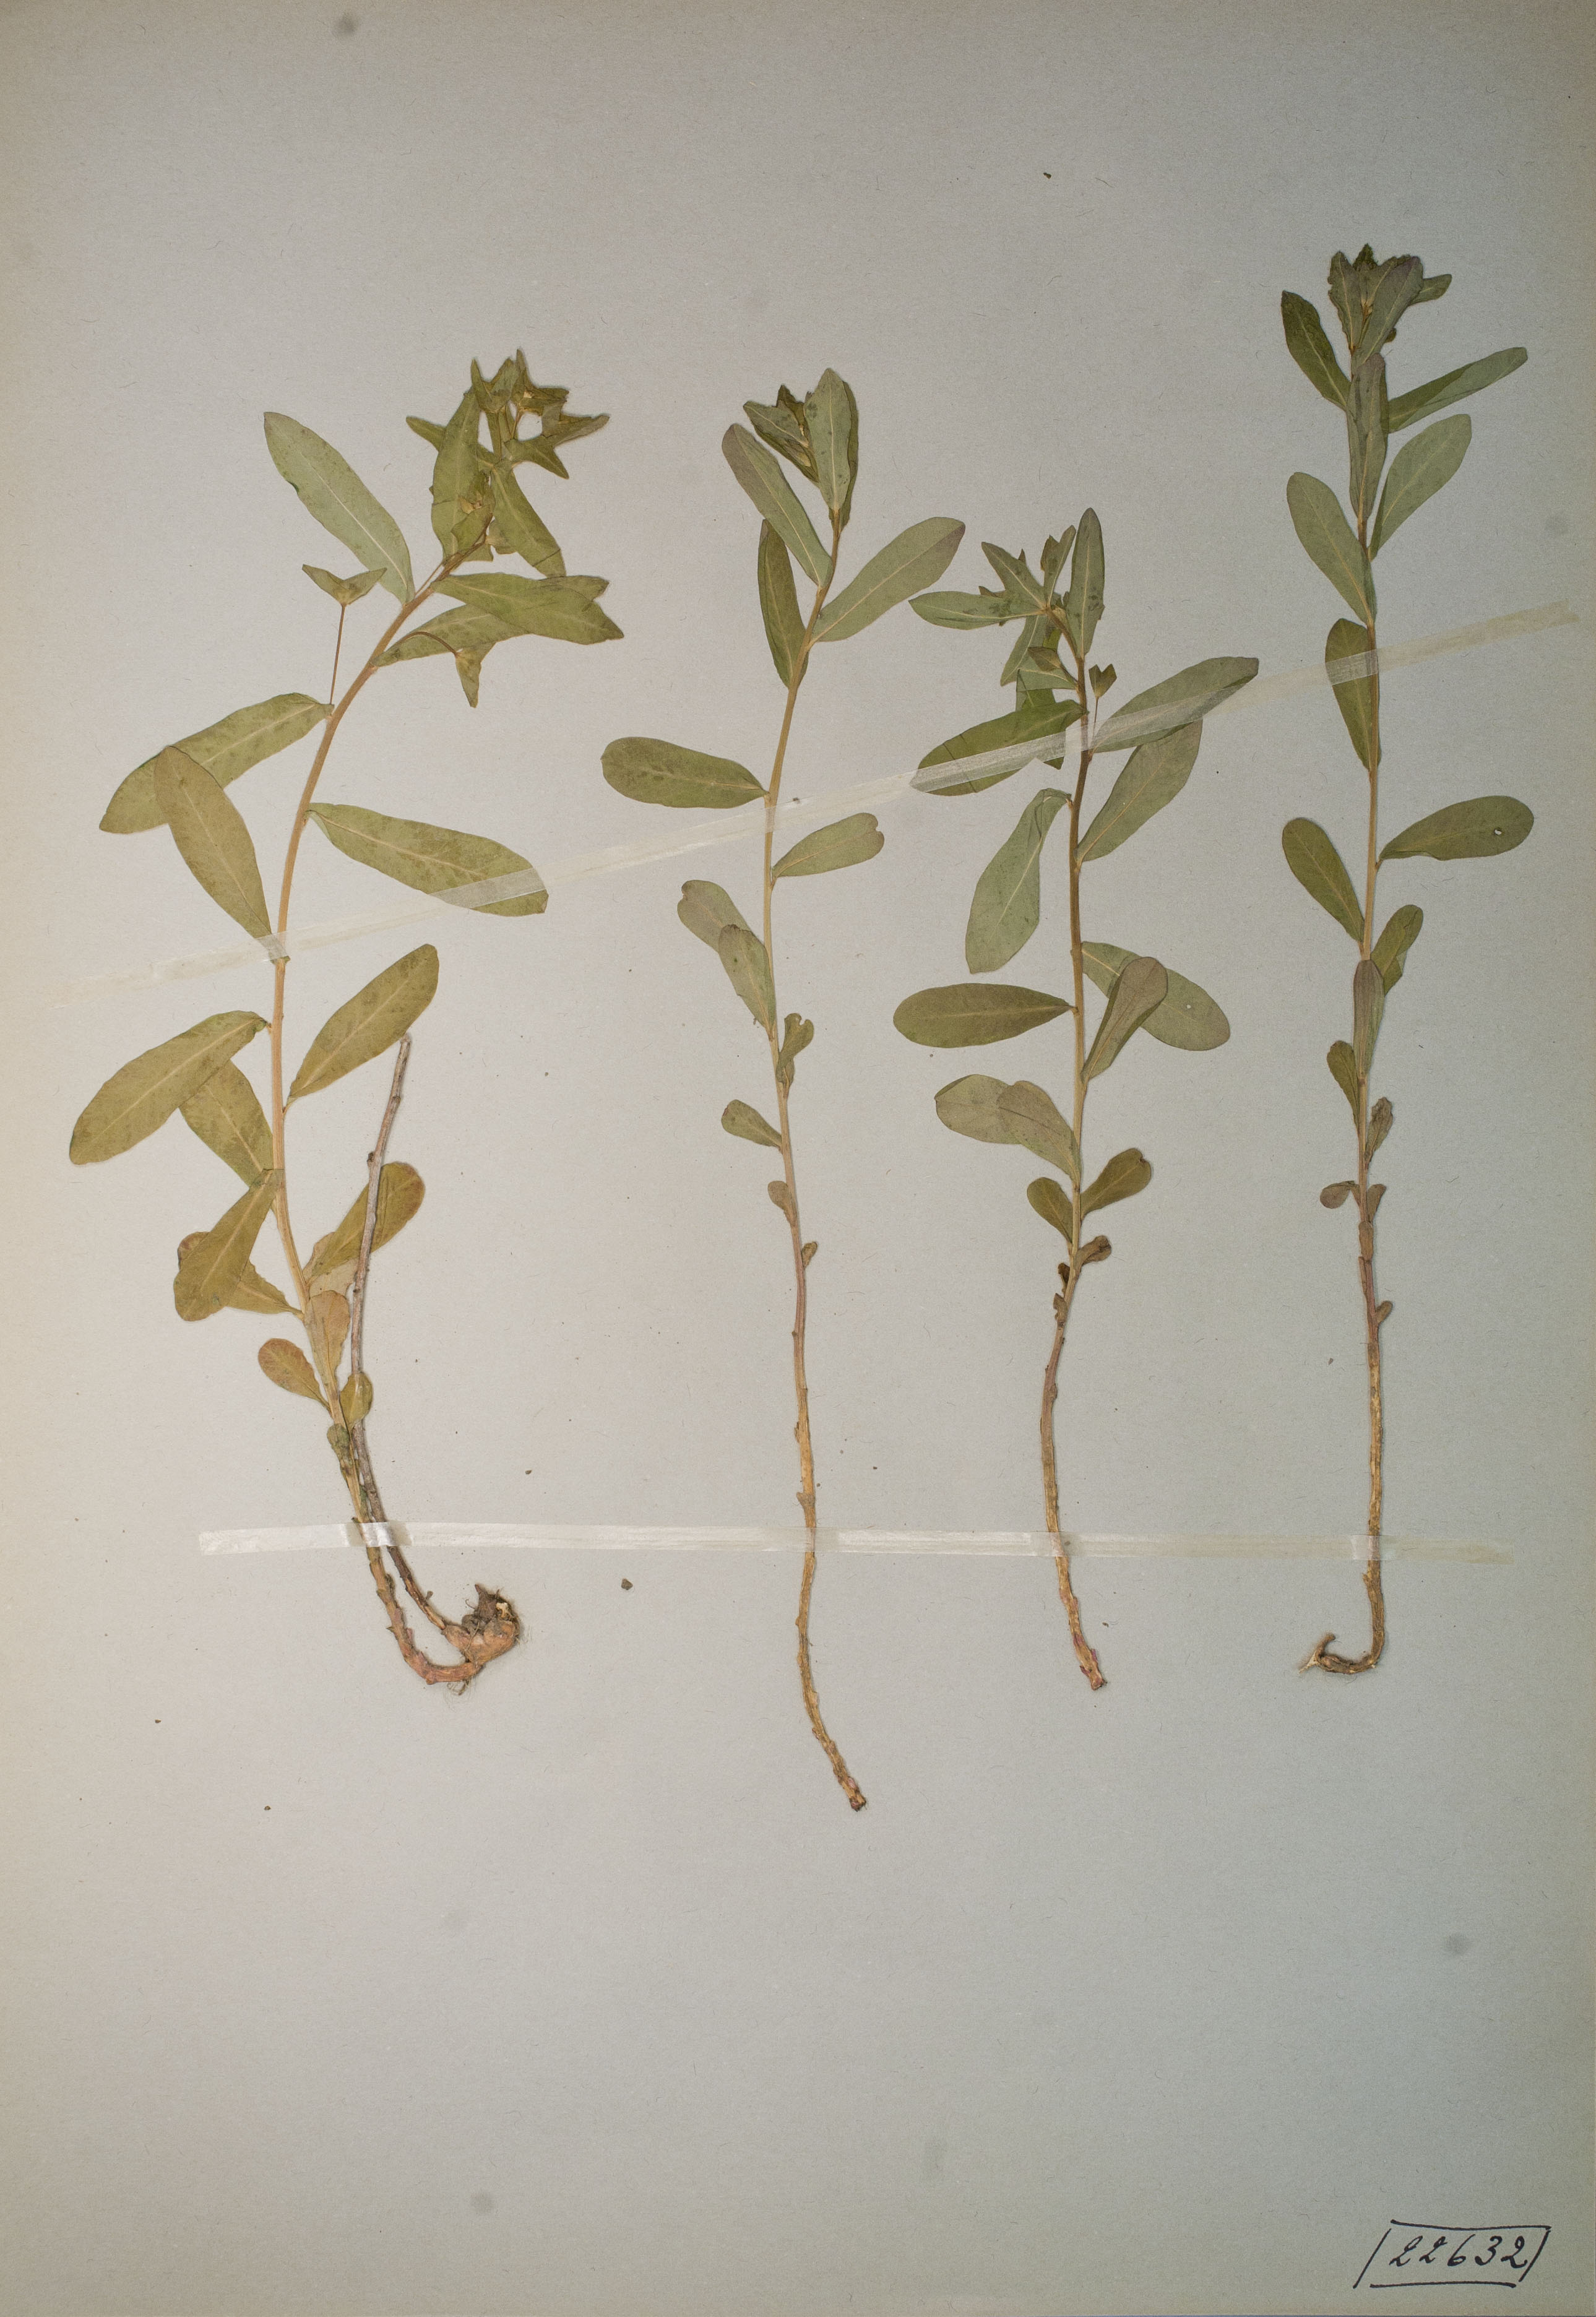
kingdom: Plantae
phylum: Tracheophyta
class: Magnoliopsida
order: Malpighiales
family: Euphorbiaceae
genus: Euphorbia
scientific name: Euphorbia dulcis
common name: Sweet spurge
